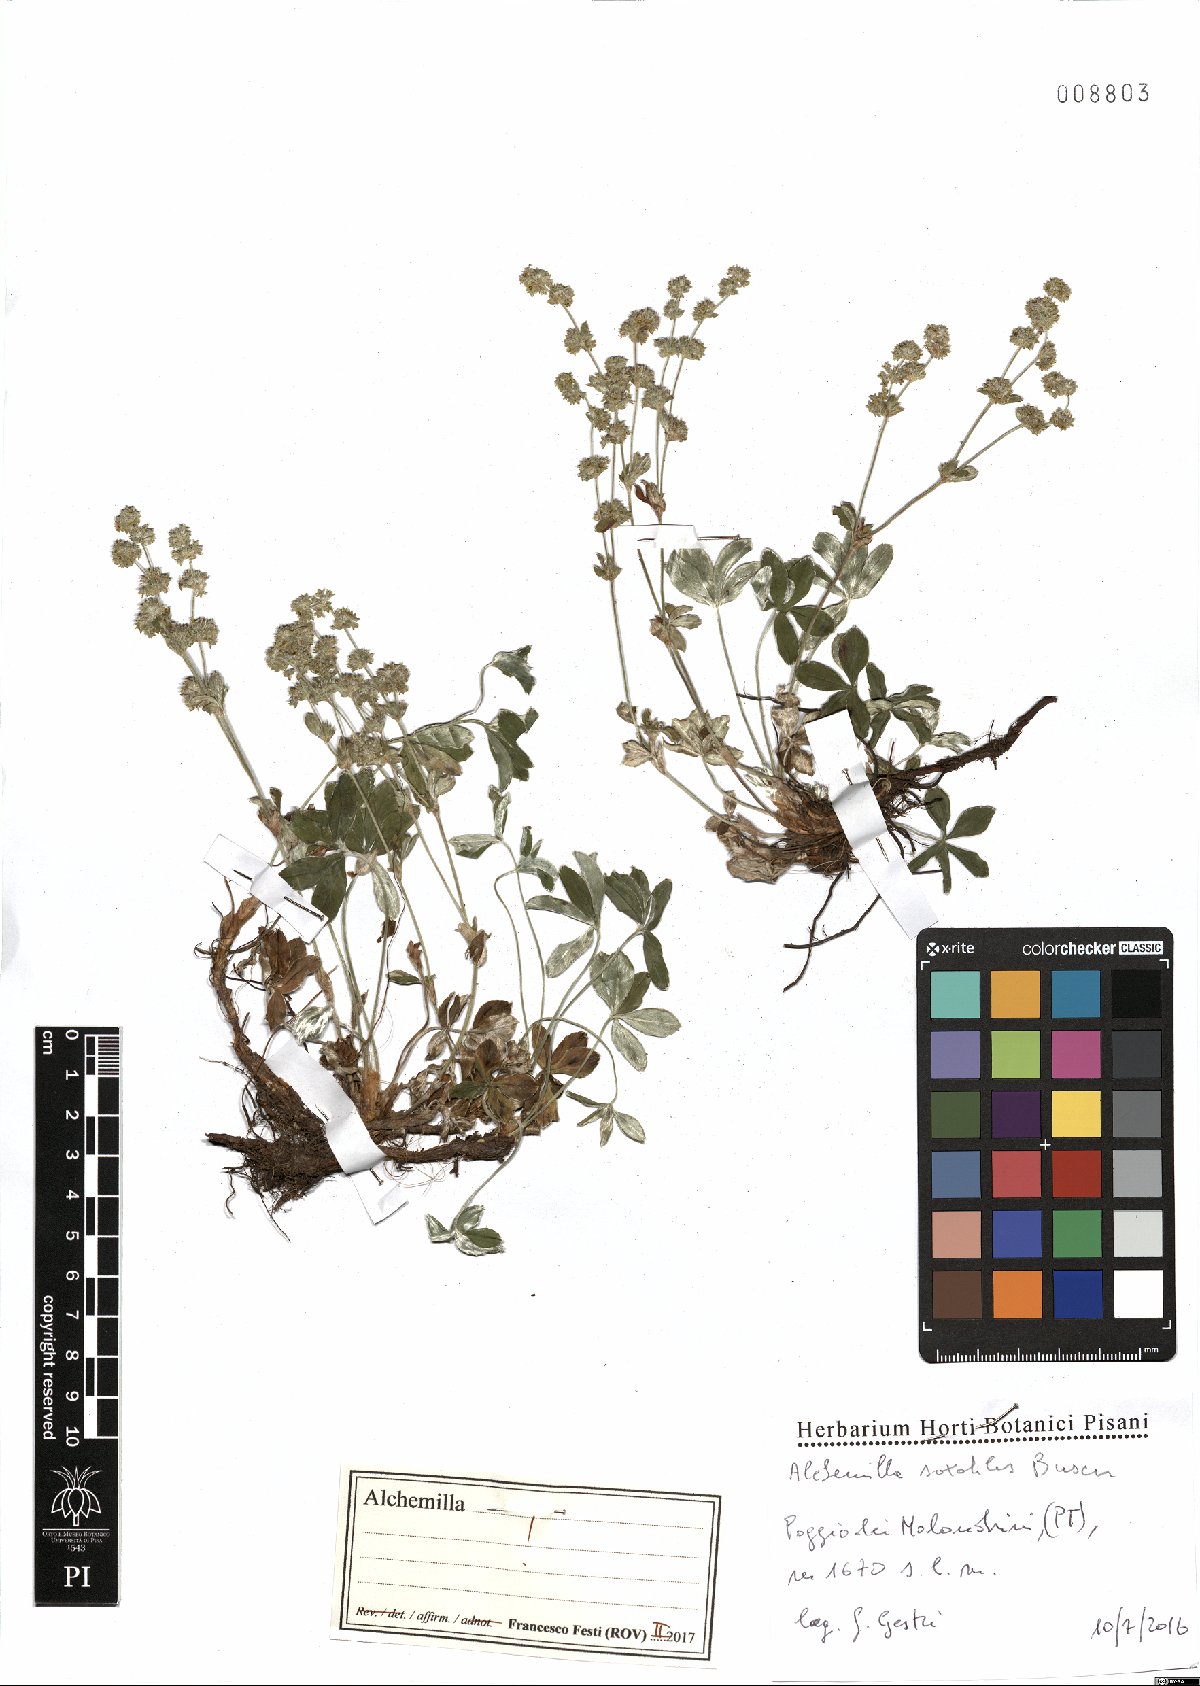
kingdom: Plantae
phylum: Tracheophyta
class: Magnoliopsida
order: Rosales
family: Rosaceae
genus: Alchemilla
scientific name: Alchemilla saxatilis
